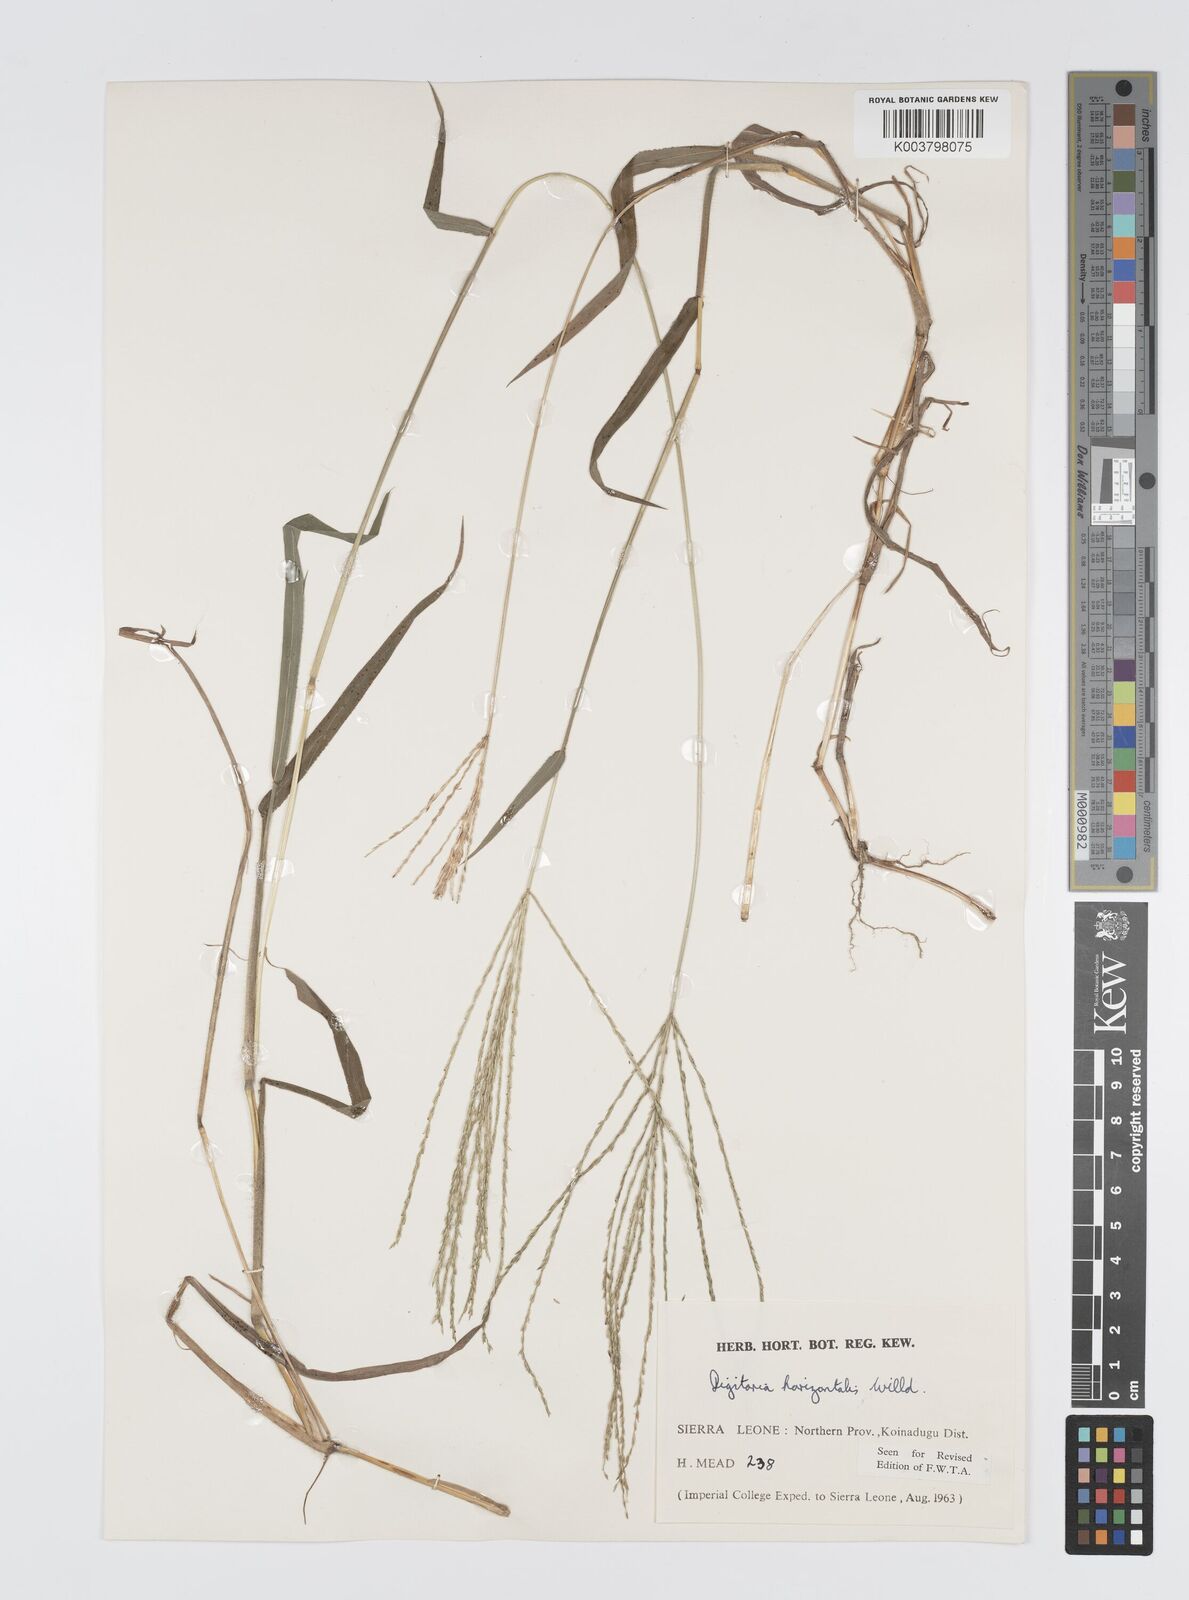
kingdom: Plantae
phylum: Tracheophyta
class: Liliopsida
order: Poales
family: Poaceae
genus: Digitaria
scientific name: Digitaria horizontalis
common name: Jamaican crabgrass
